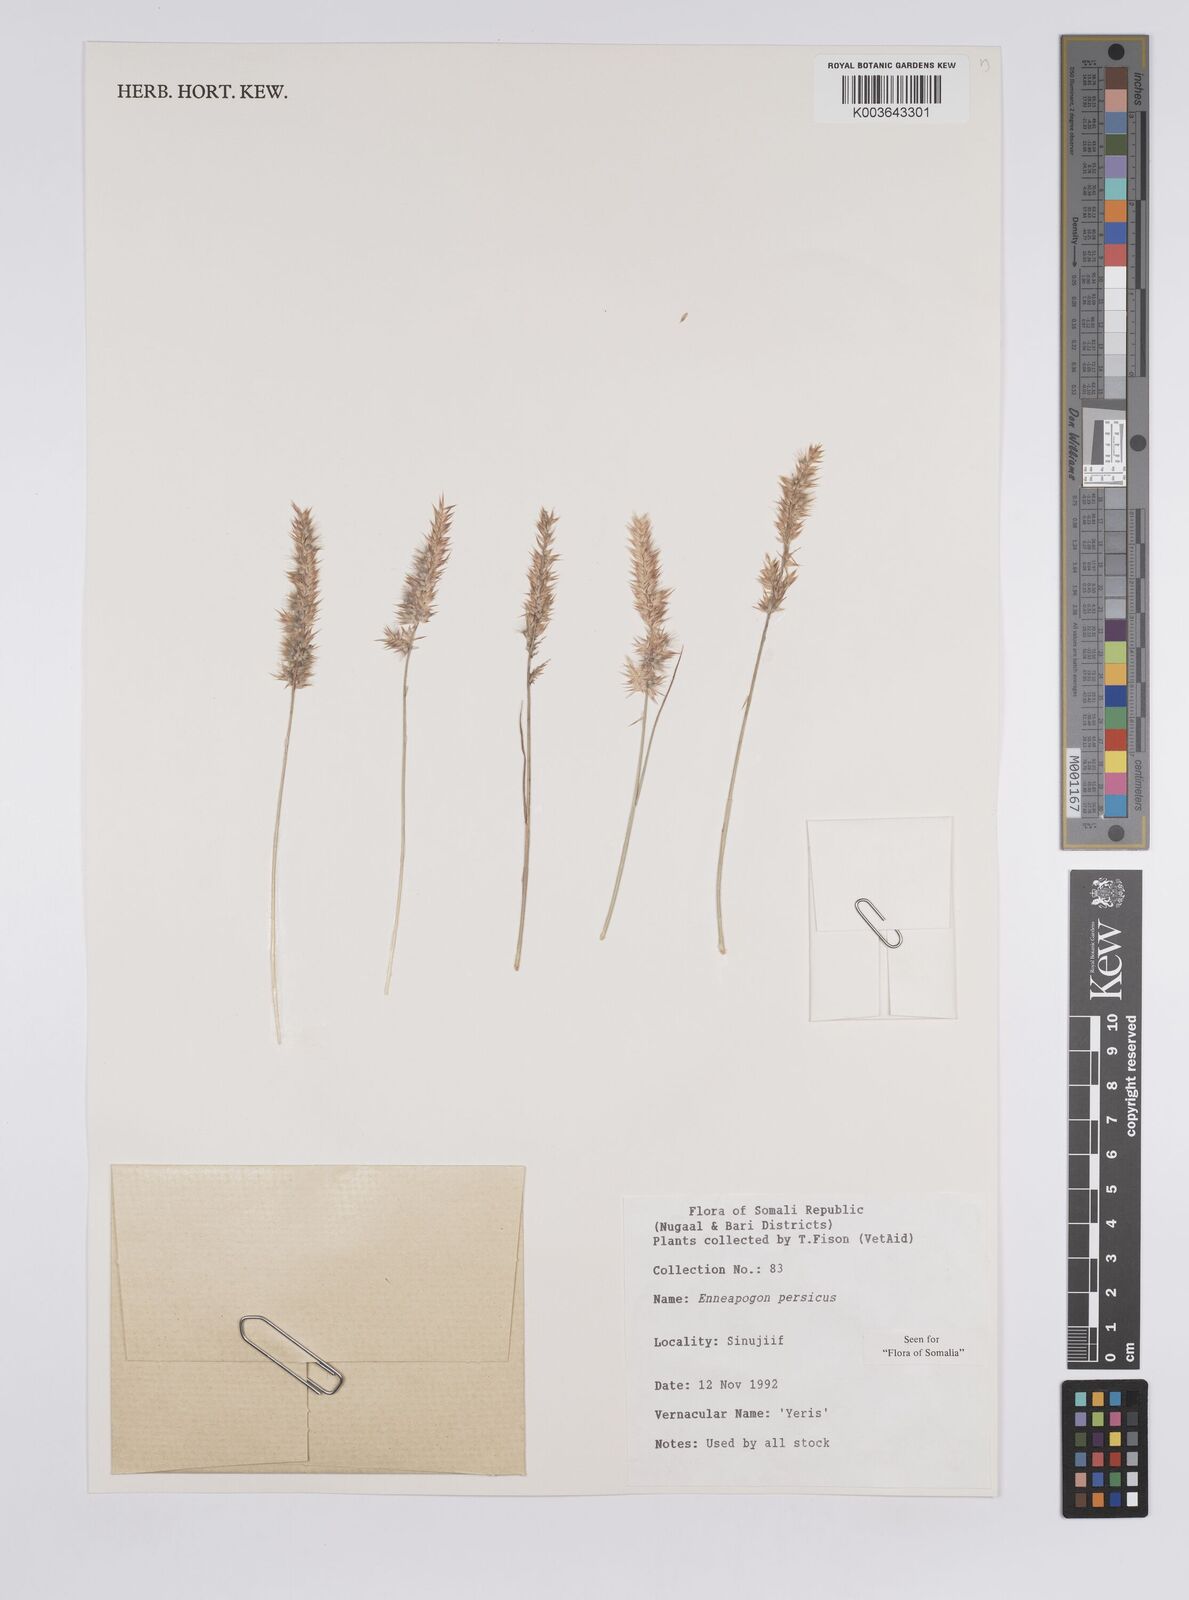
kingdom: Plantae
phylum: Tracheophyta
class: Liliopsida
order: Poales
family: Poaceae
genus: Enneapogon
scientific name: Enneapogon persicus
